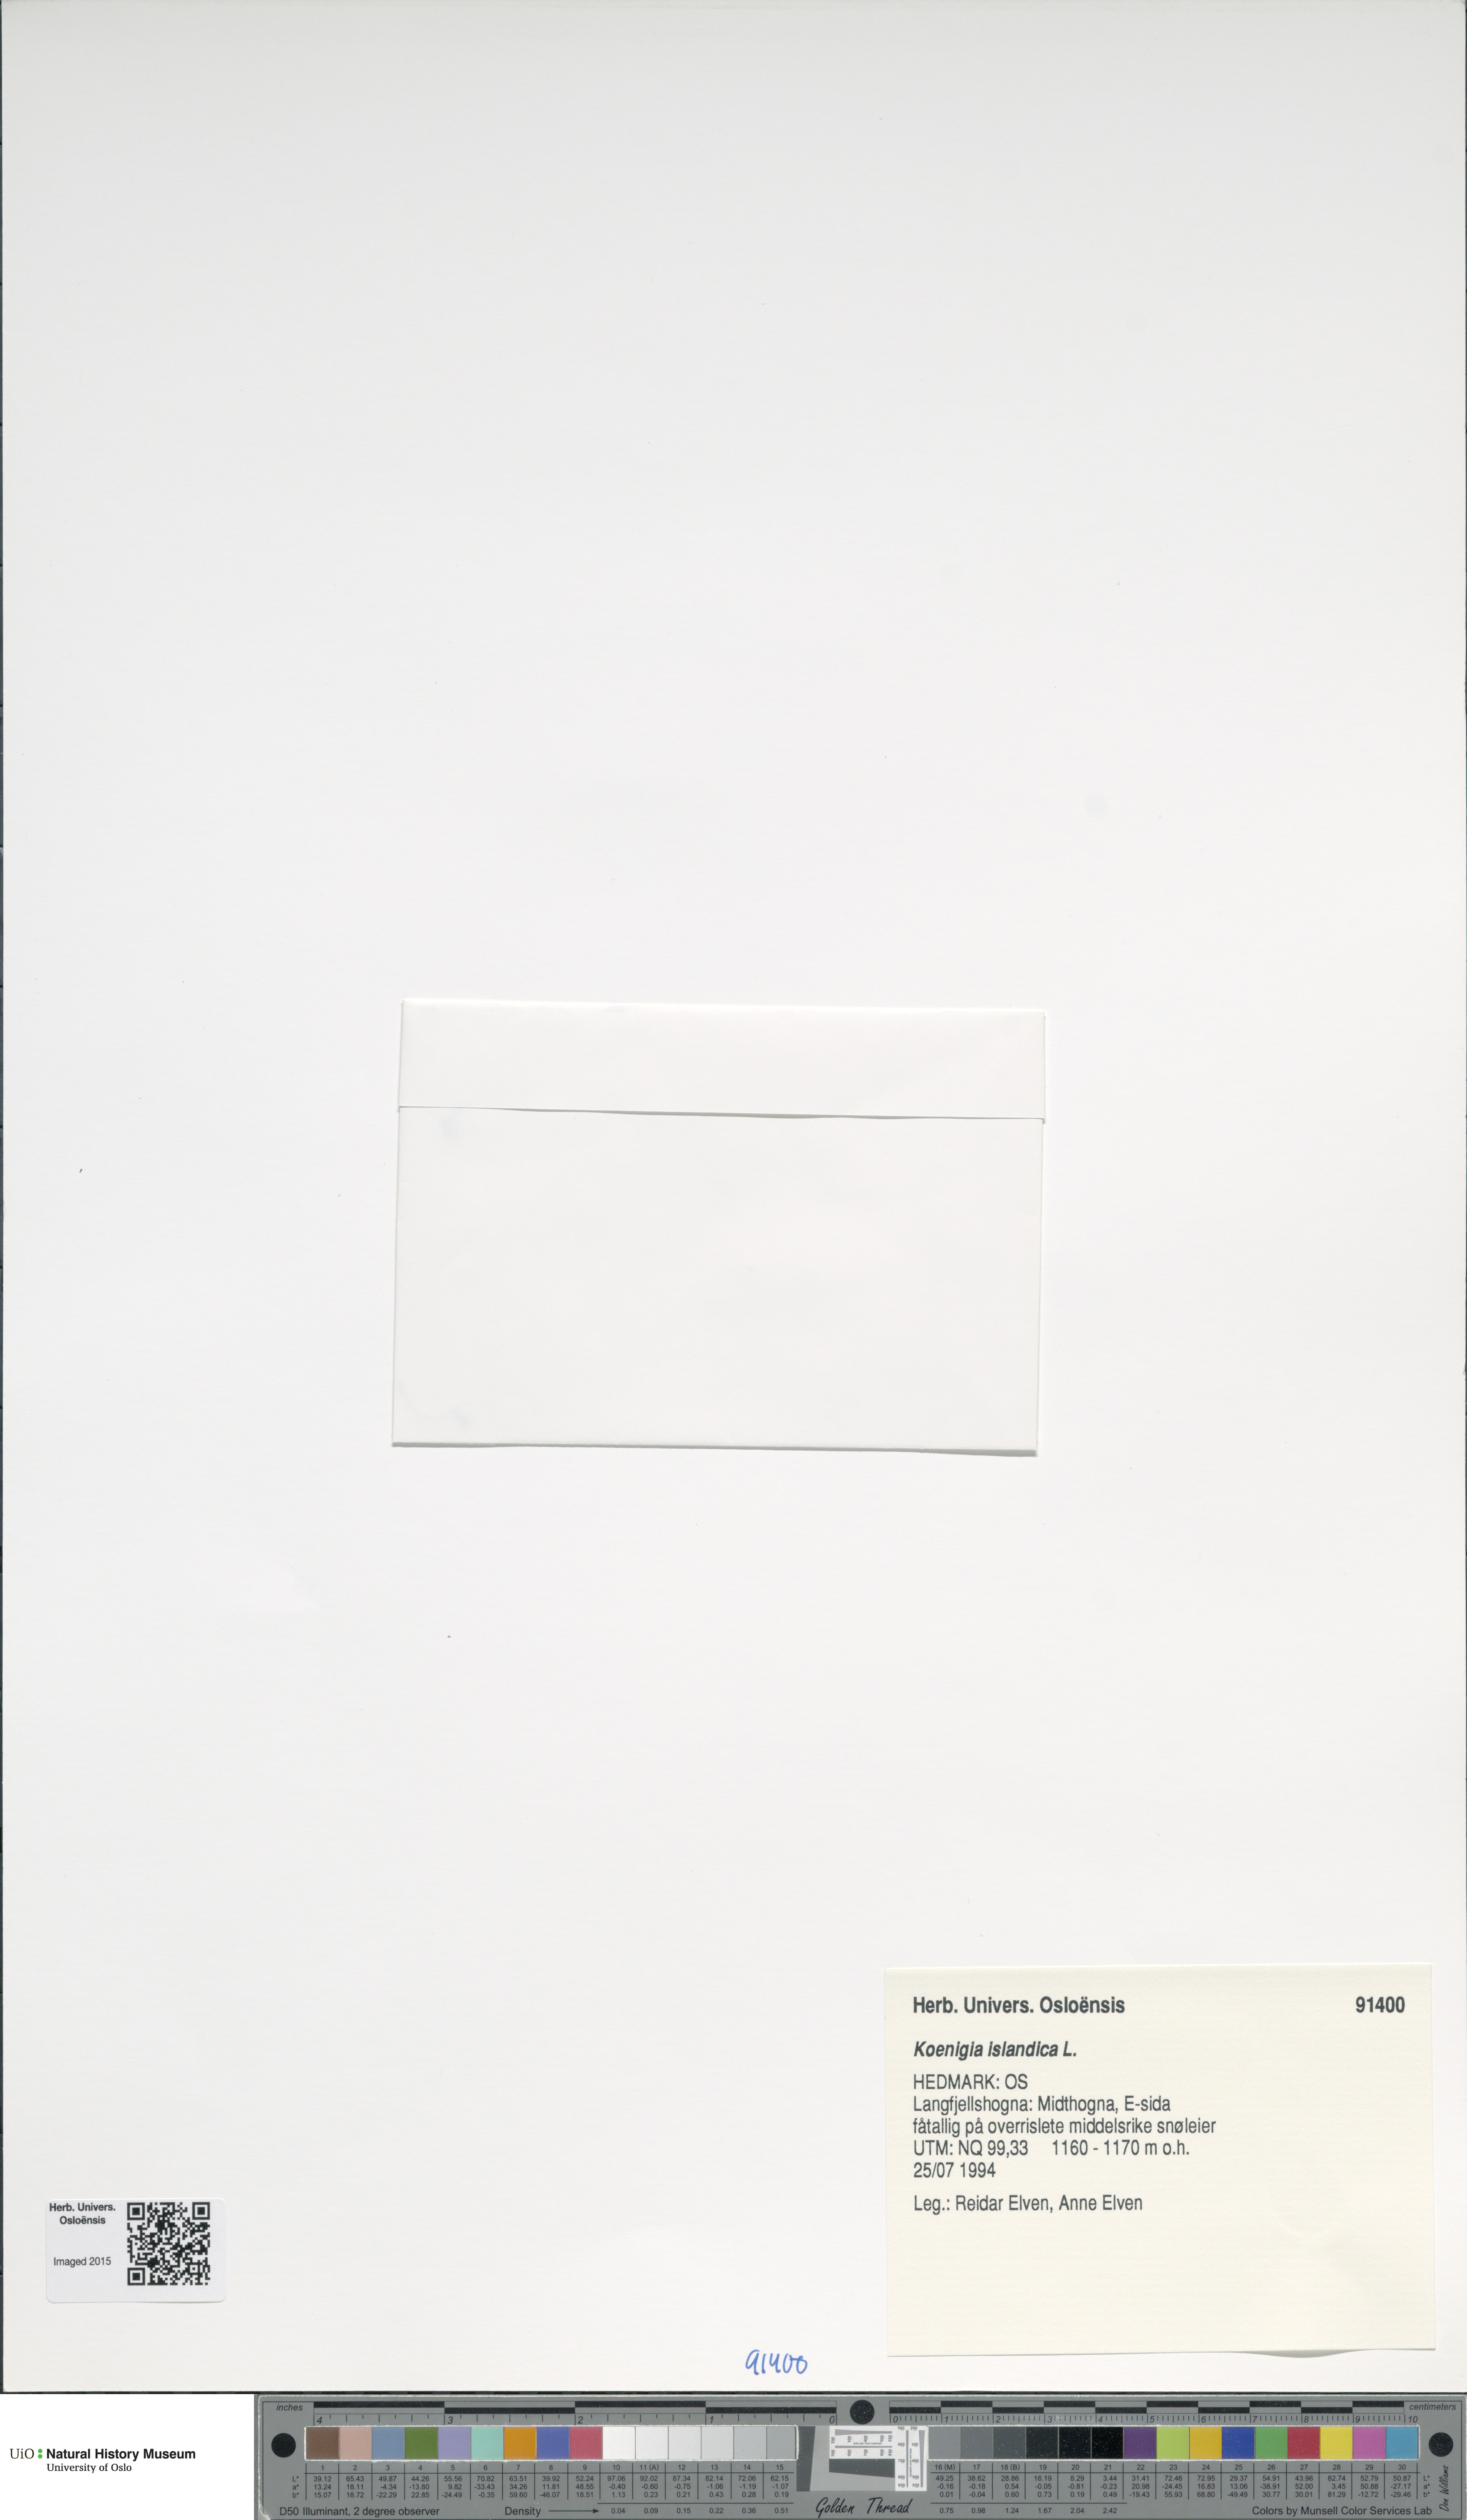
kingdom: Plantae
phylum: Tracheophyta
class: Magnoliopsida
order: Caryophyllales
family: Polygonaceae
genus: Koenigia
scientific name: Koenigia islandica
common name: Iceland-purslane
